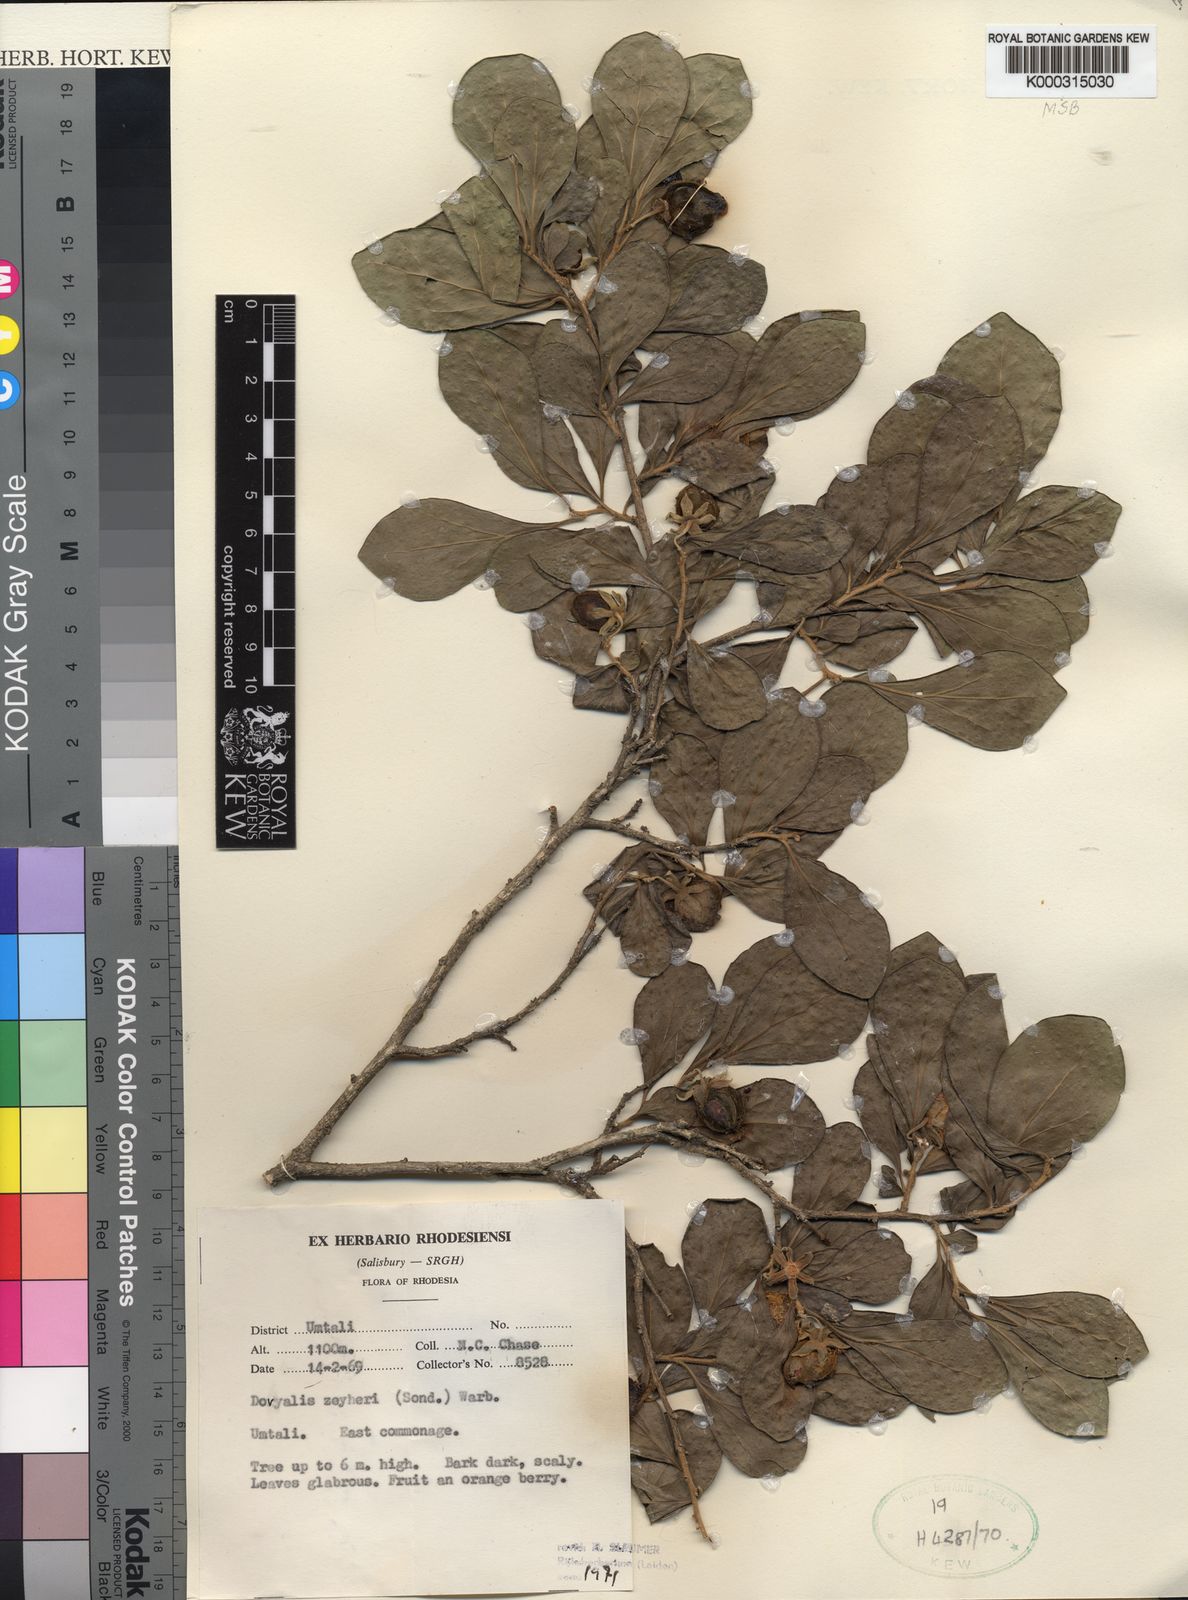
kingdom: Plantae
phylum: Tracheophyta
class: Magnoliopsida
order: Malpighiales
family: Salicaceae
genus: Dovyalis
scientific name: Dovyalis zeyheri
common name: Apricot sourberry
